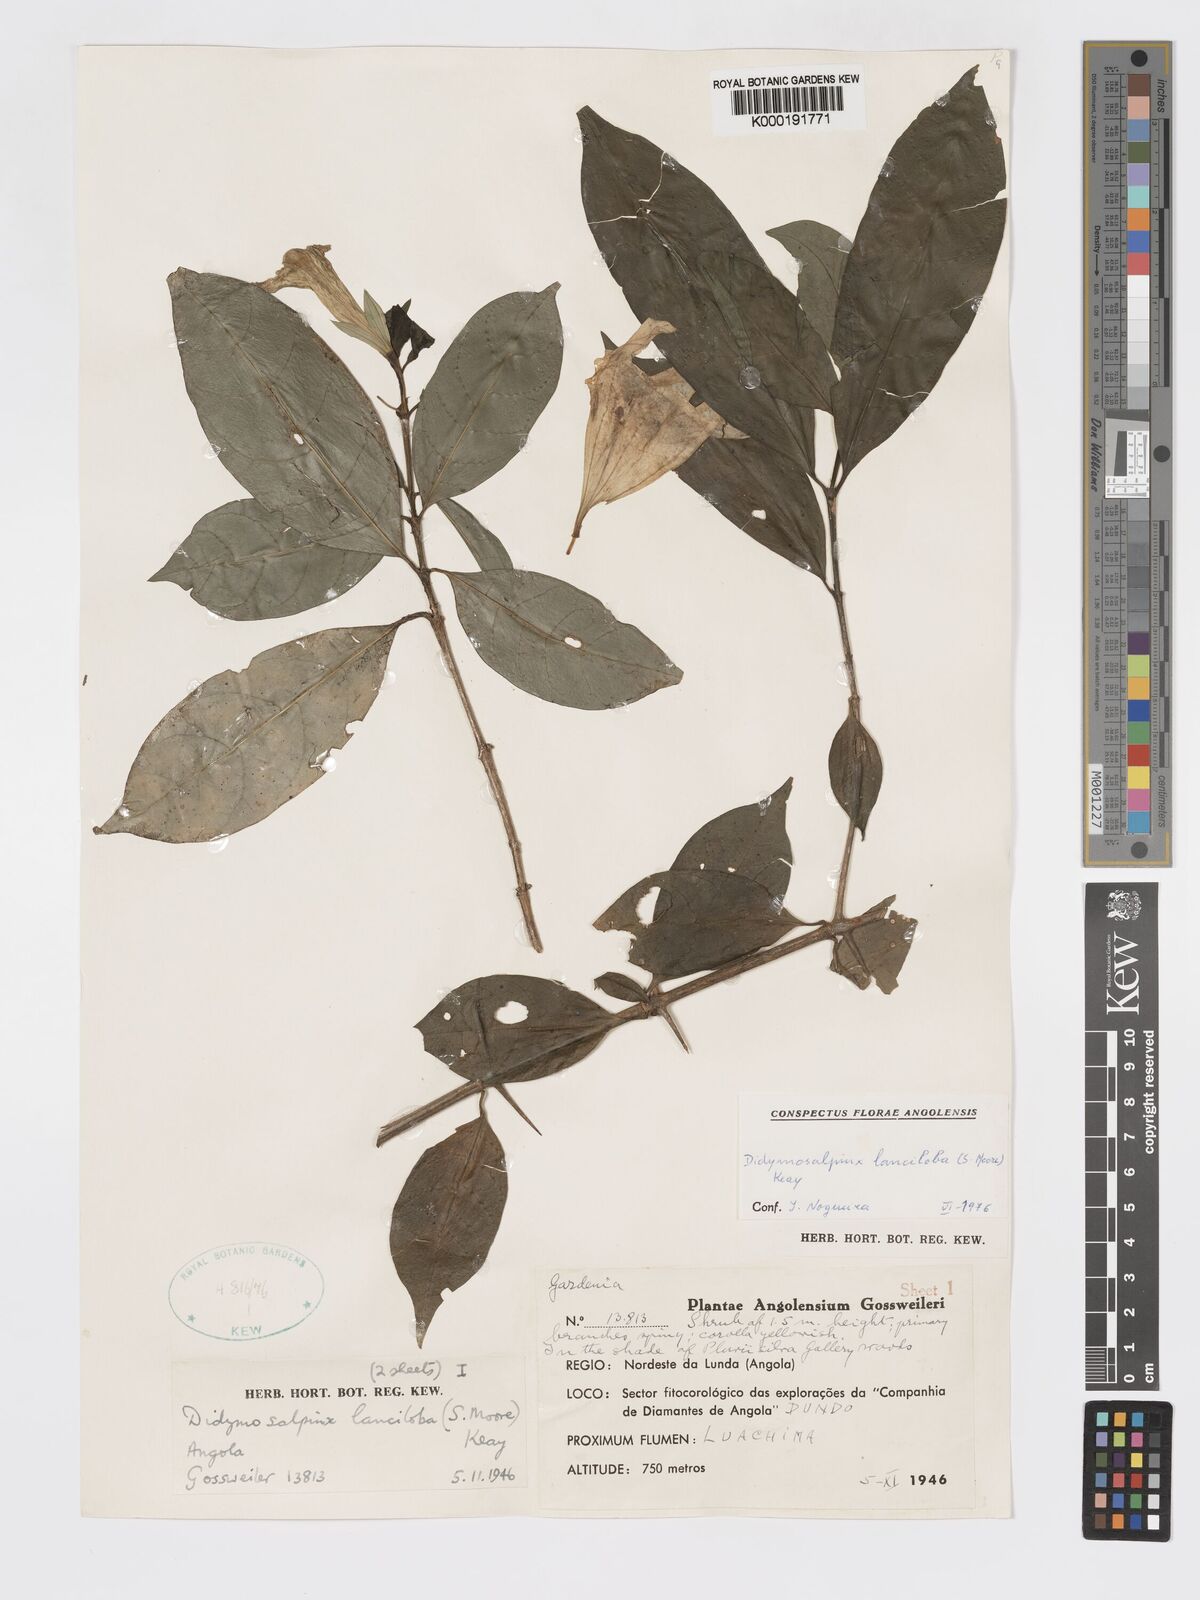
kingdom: Plantae
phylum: Tracheophyta
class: Magnoliopsida
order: Gentianales
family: Rubiaceae
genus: Didymosalpinx
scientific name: Didymosalpinx lanciloba
